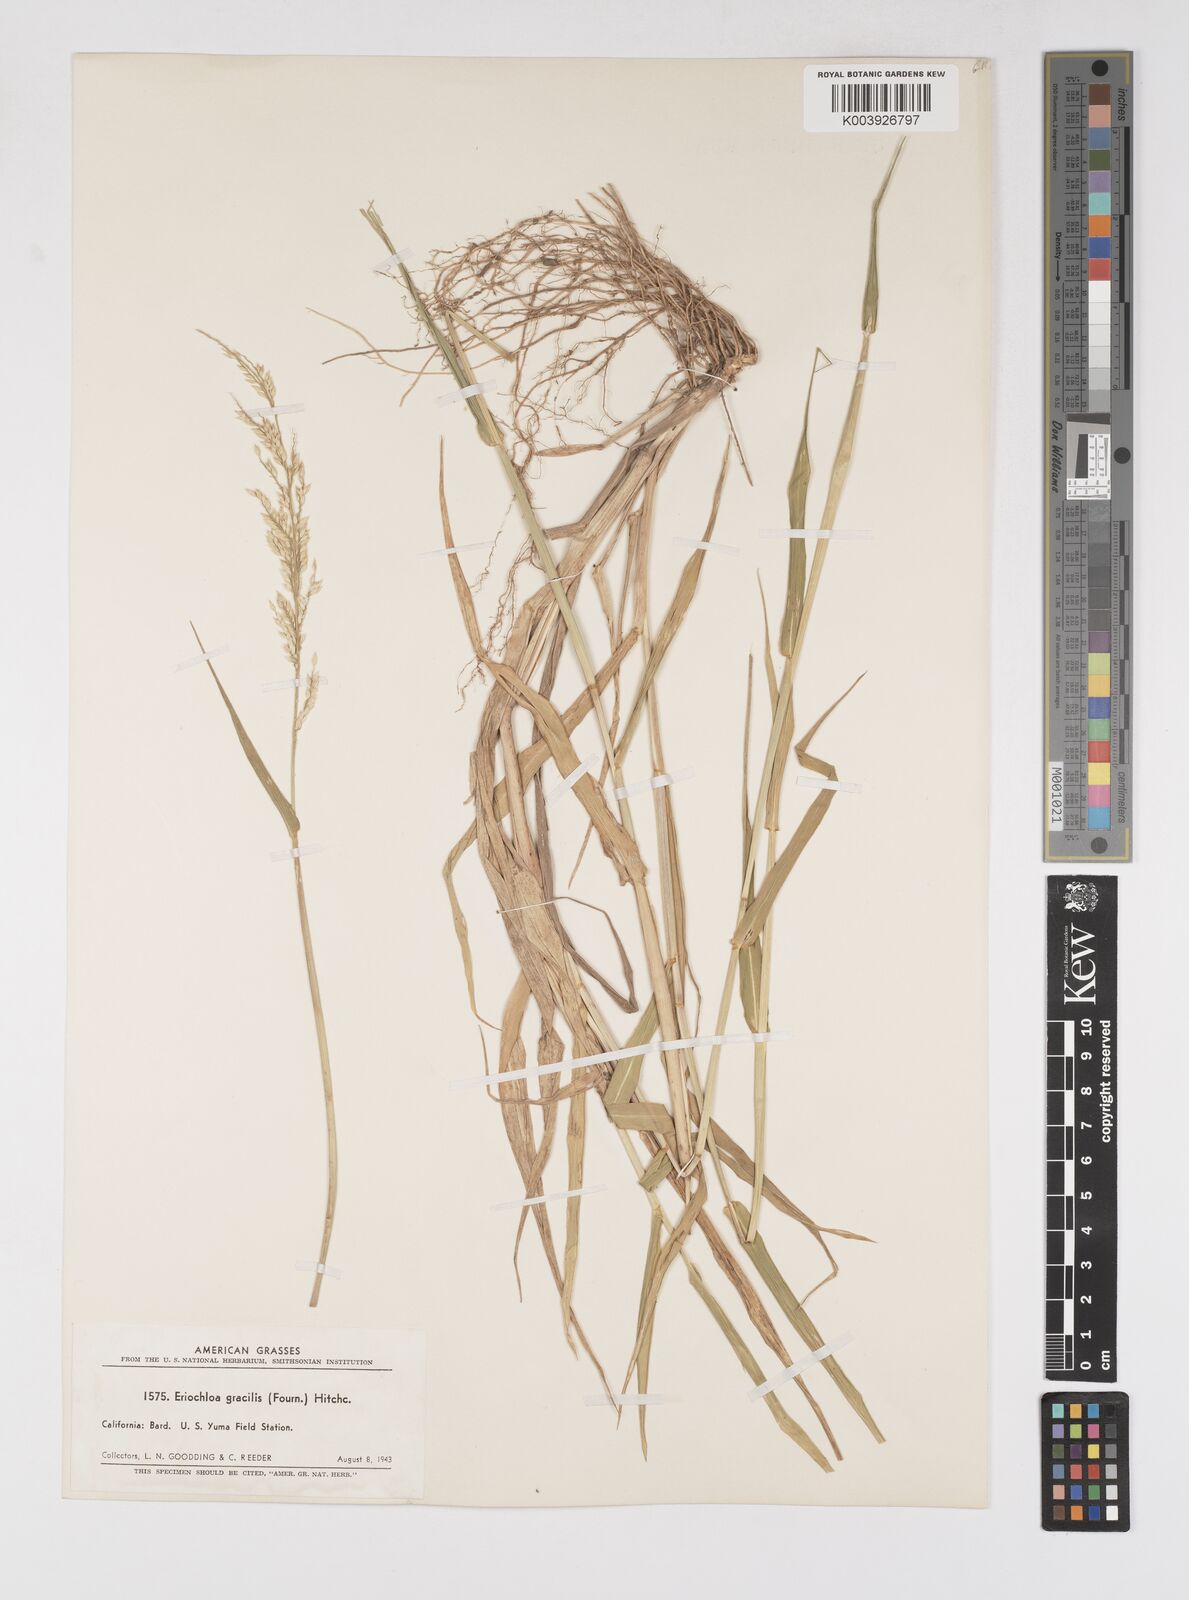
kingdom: Plantae
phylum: Tracheophyta
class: Liliopsida
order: Poales
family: Poaceae
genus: Eriochloa
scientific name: Eriochloa acuminata
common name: Southwestern cup grass
